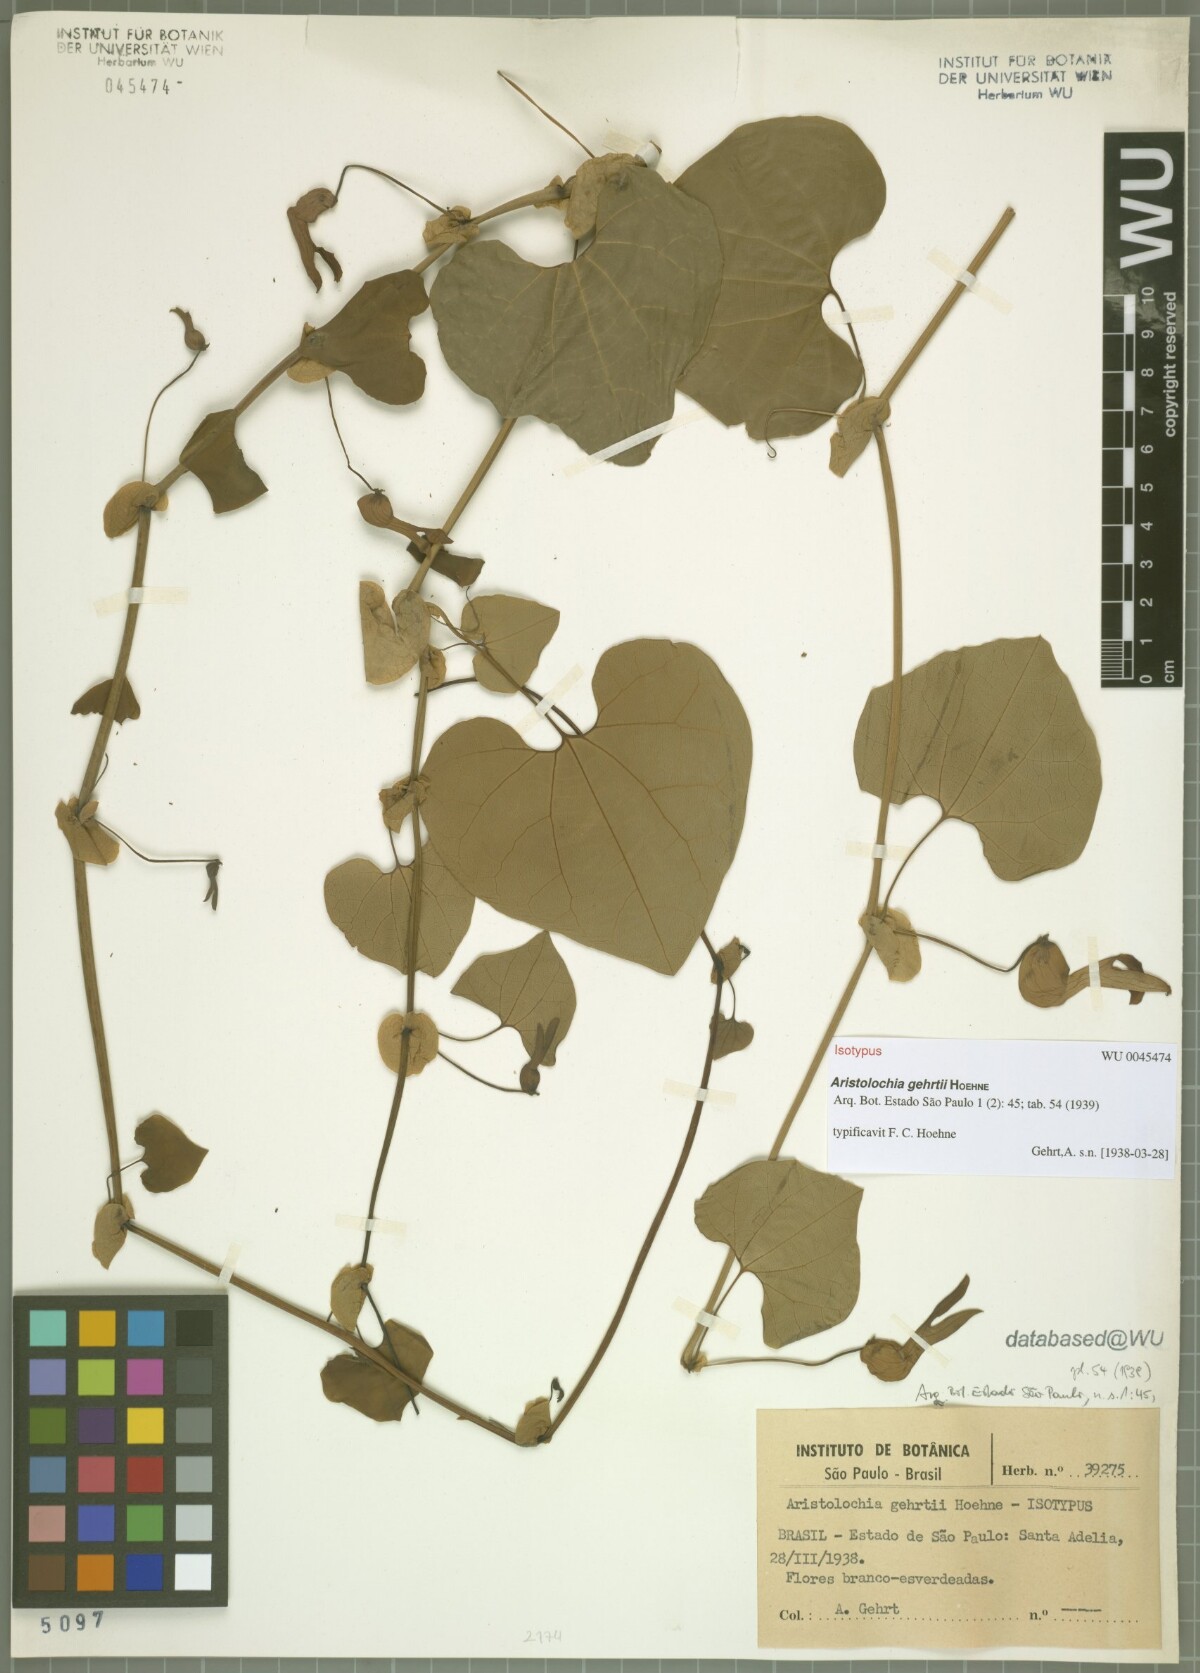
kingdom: Plantae
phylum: Tracheophyta
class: Magnoliopsida
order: Piperales
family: Aristolochiaceae
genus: Aristolochia
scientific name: Aristolochia gehrtii
